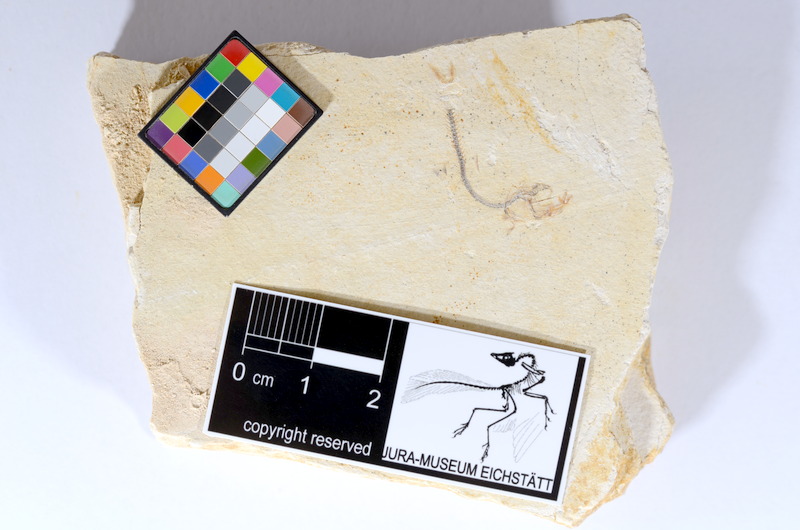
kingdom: Animalia
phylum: Chordata
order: Salmoniformes
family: Orthogonikleithridae
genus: Orthogonikleithrus
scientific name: Orthogonikleithrus hoelli
